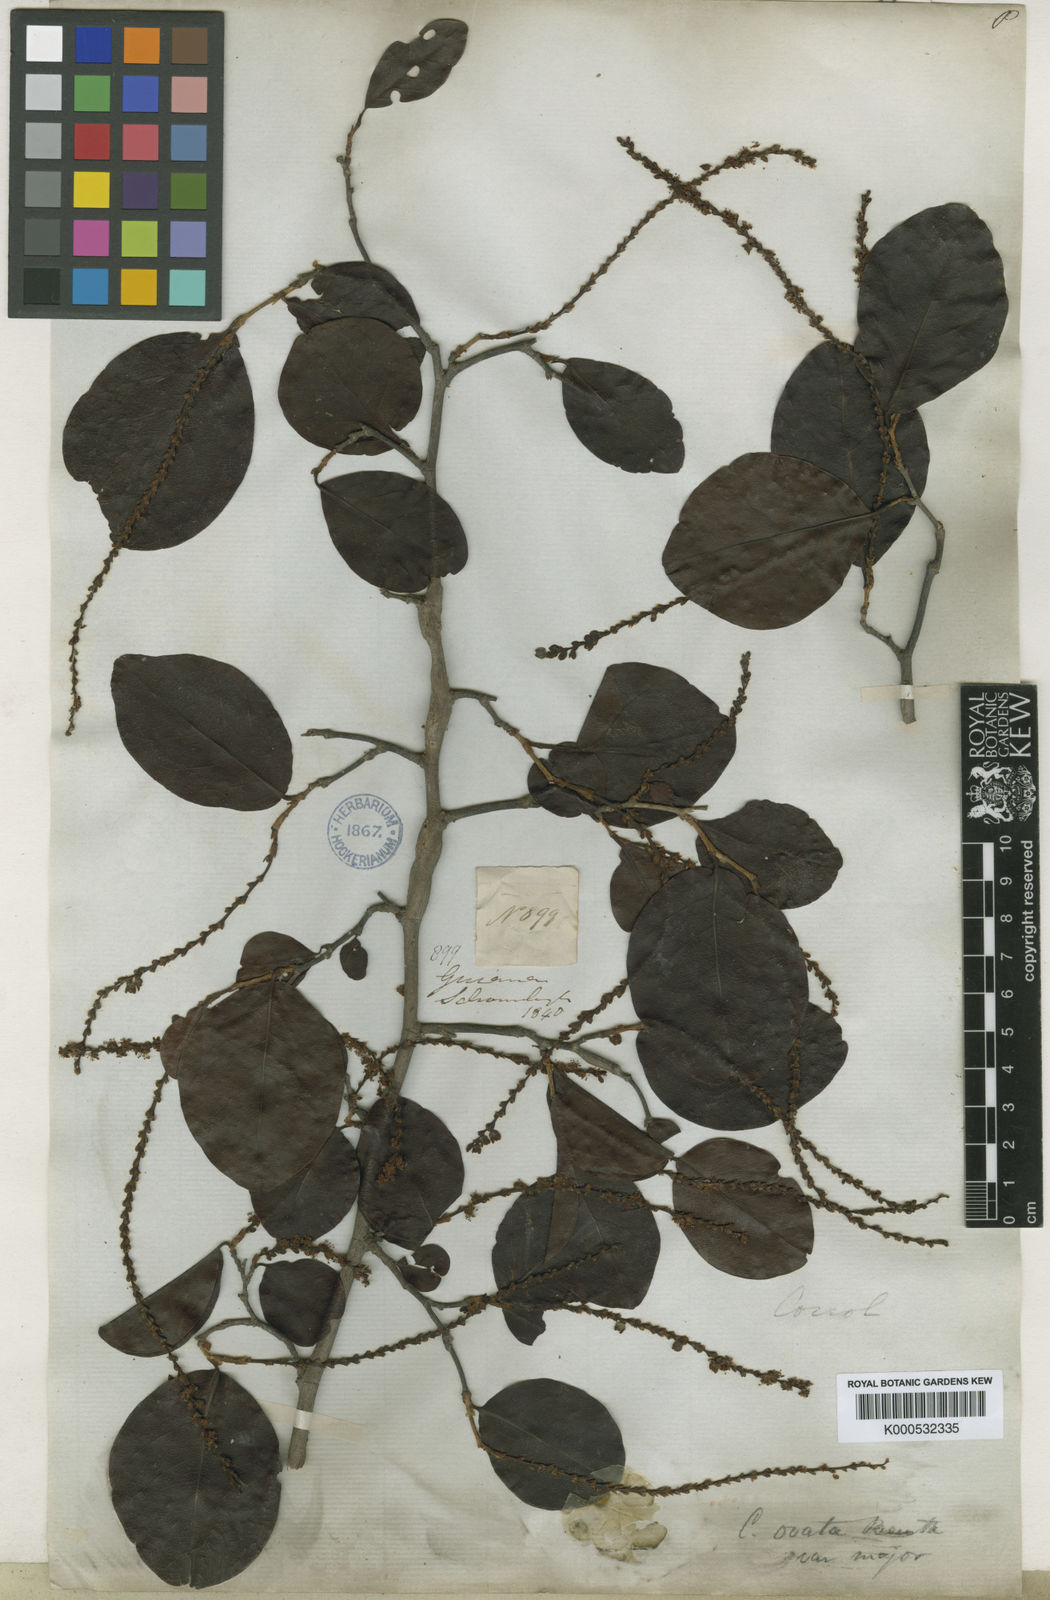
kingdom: Plantae
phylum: Tracheophyta
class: Magnoliopsida
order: Caryophyllales
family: Polygonaceae
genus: Coccoloba
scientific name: Coccoloba ovata
